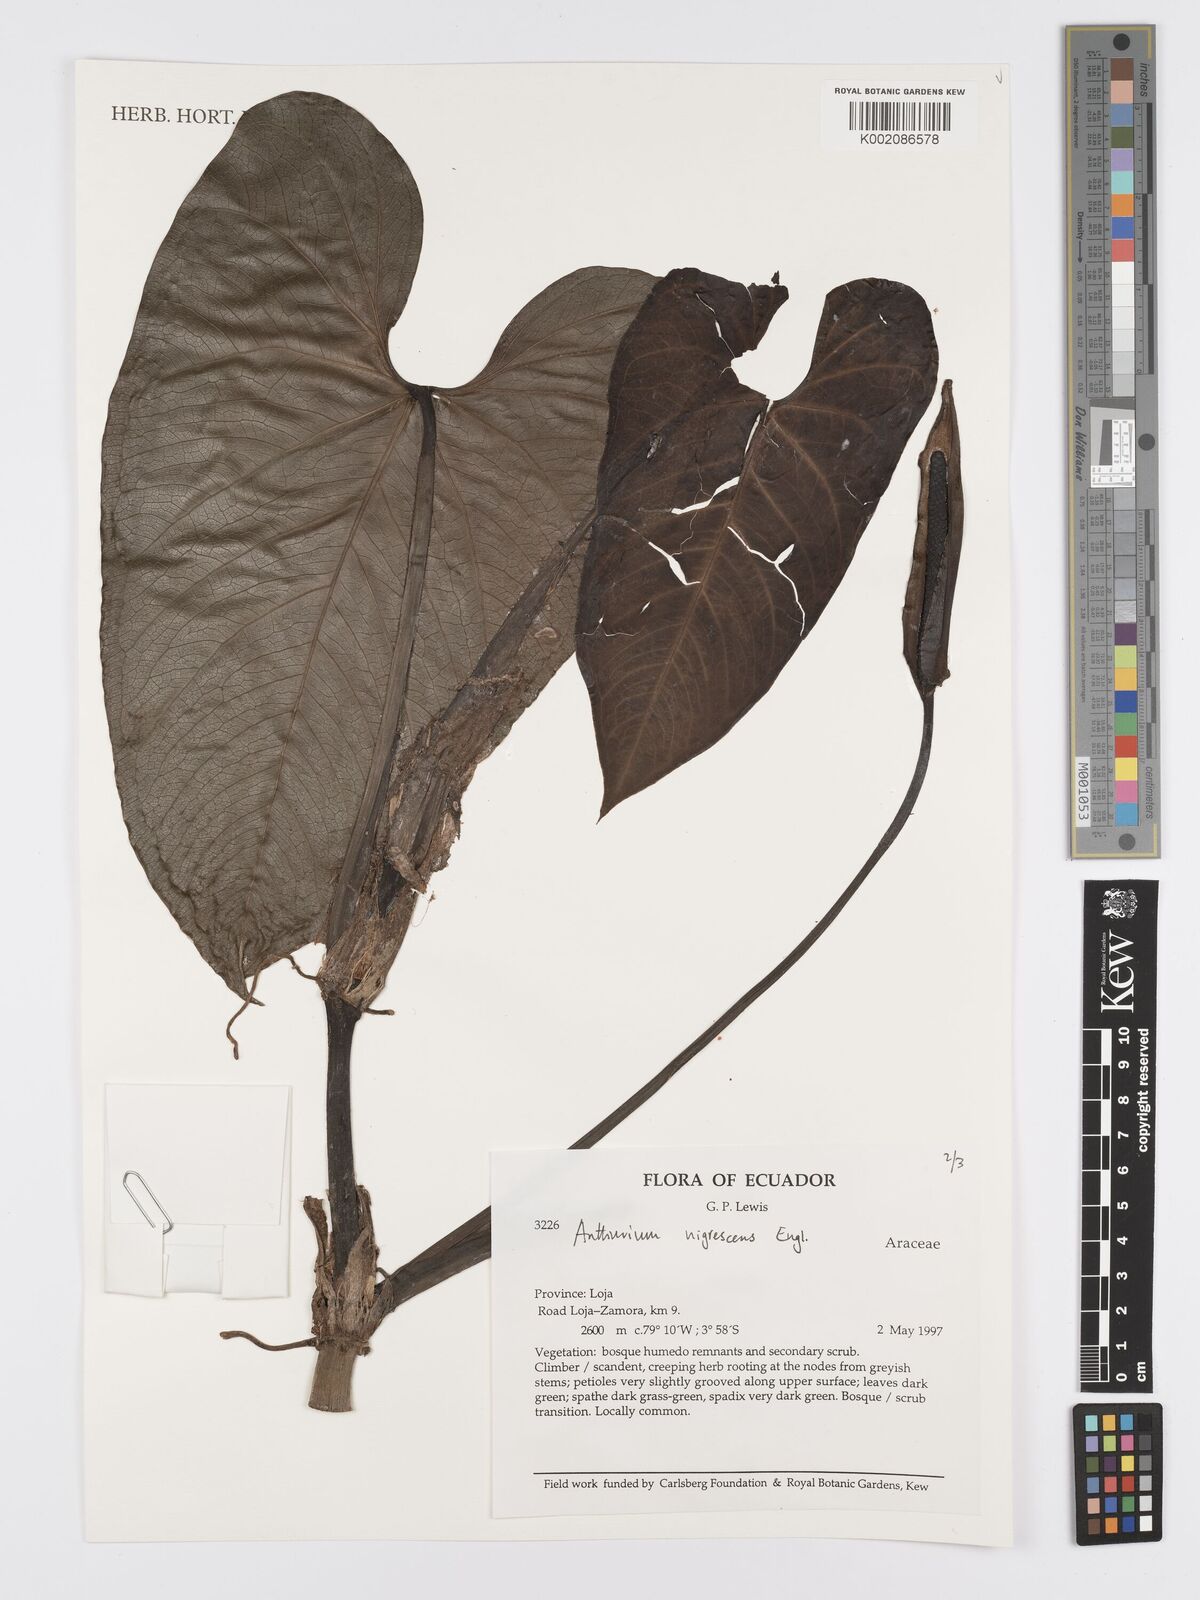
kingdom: Plantae
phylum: Tracheophyta
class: Liliopsida
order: Alismatales
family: Araceae
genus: Anthurium
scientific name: Anthurium nigrescens
